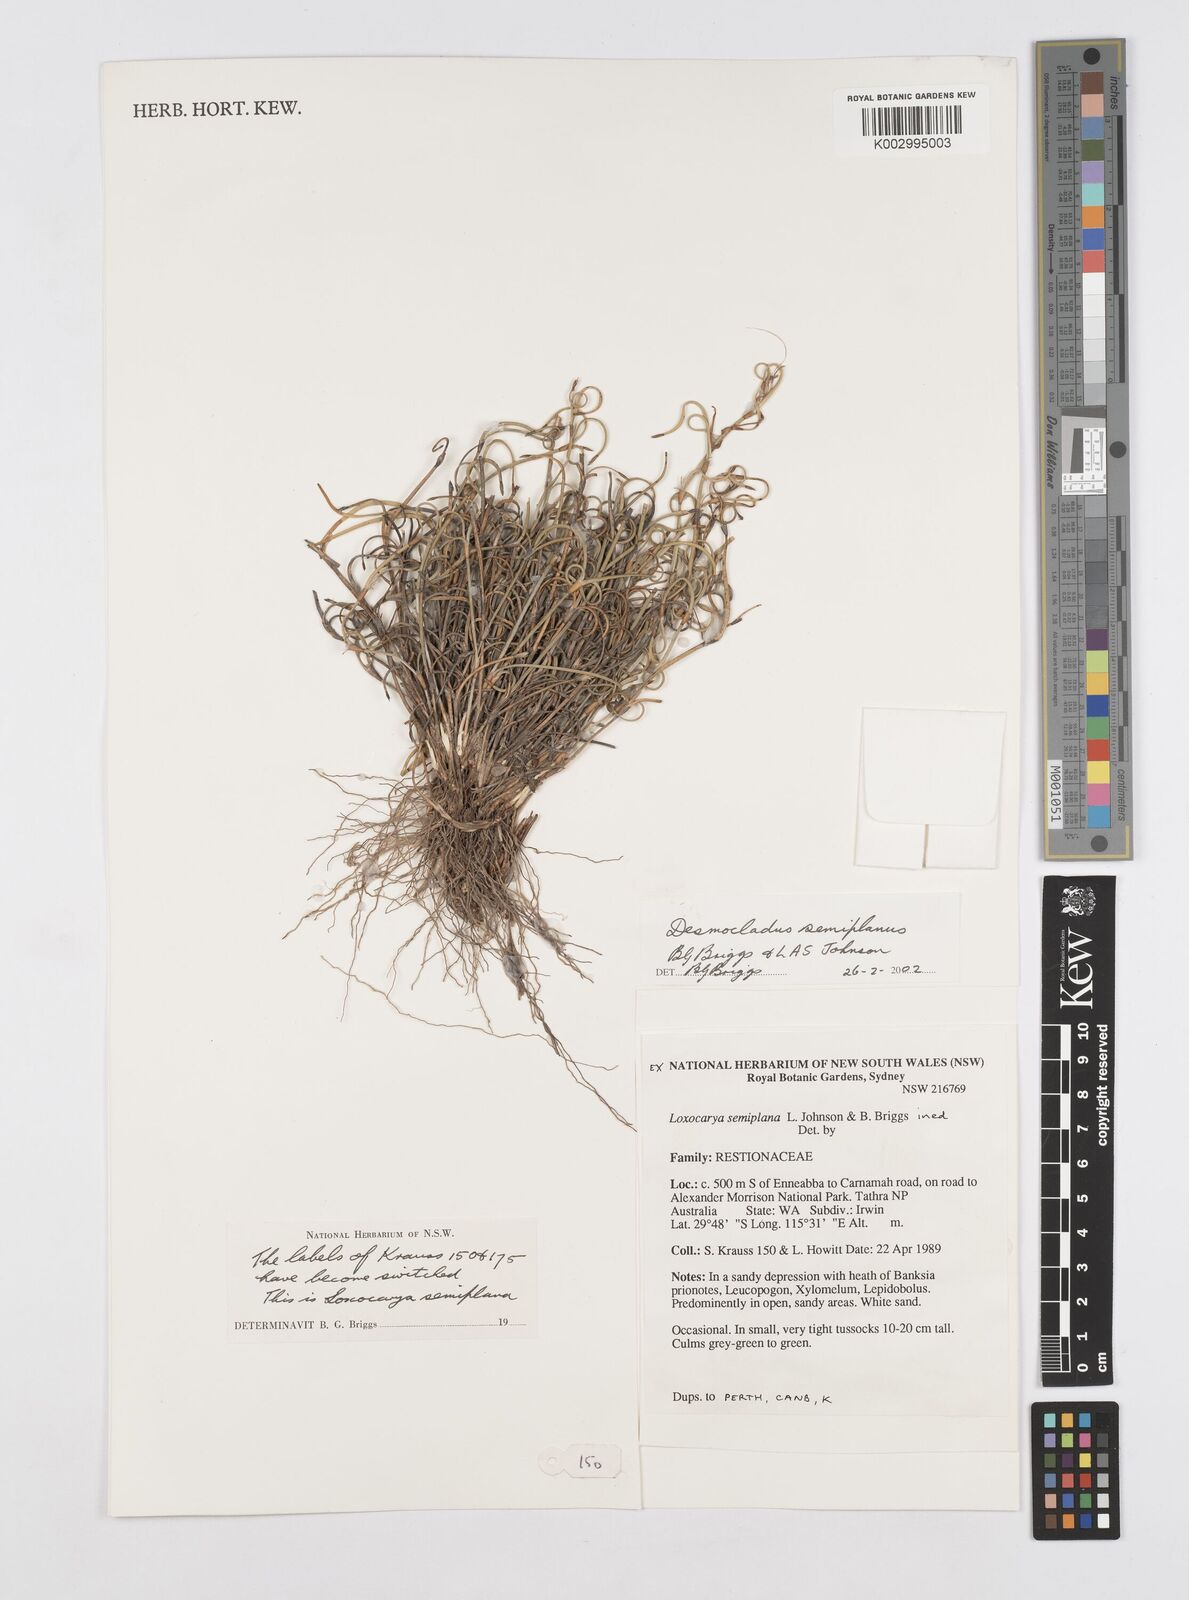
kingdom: Plantae
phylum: Tracheophyta
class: Liliopsida
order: Poales
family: Restionaceae
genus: Desmocladus
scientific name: Desmocladus semiplanus
